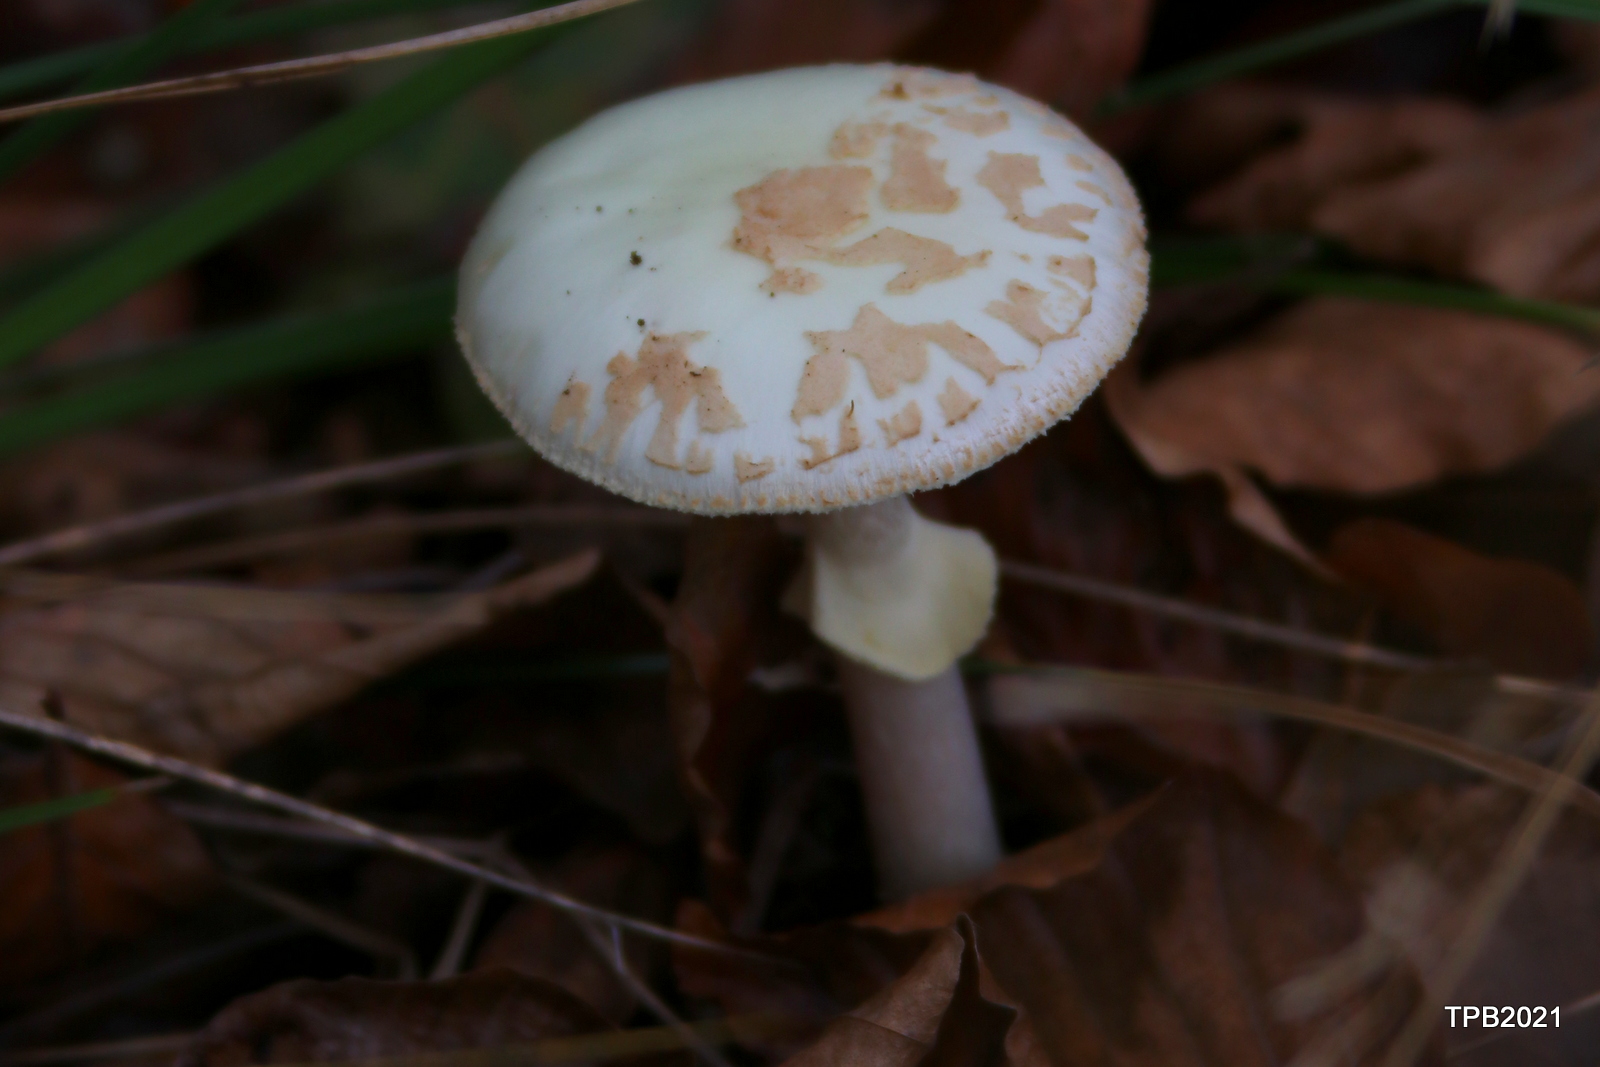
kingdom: Fungi
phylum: Basidiomycota
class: Agaricomycetes
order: Agaricales
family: Amanitaceae
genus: Amanita
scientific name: Amanita citrina
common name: False death-cap
